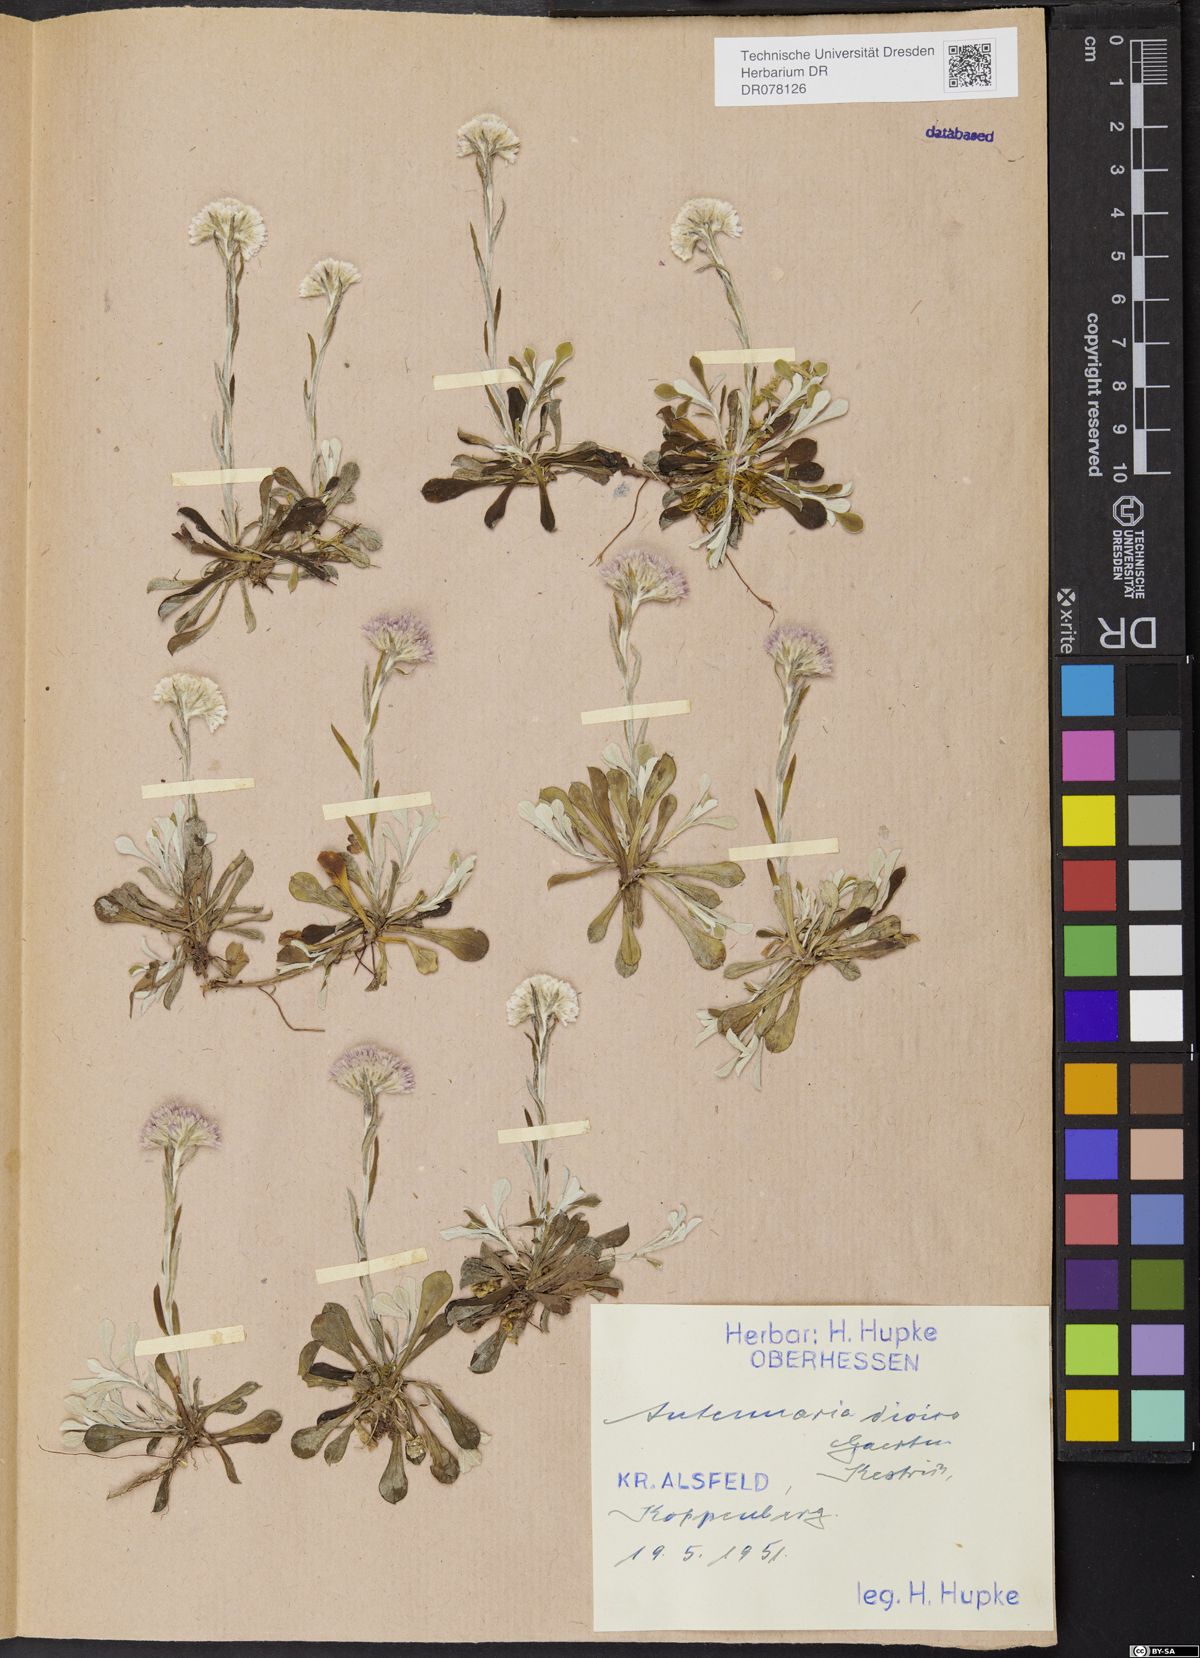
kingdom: Plantae
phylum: Tracheophyta
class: Magnoliopsida
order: Asterales
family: Asteraceae
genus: Antennaria
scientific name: Antennaria dioica
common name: Mountain everlasting
